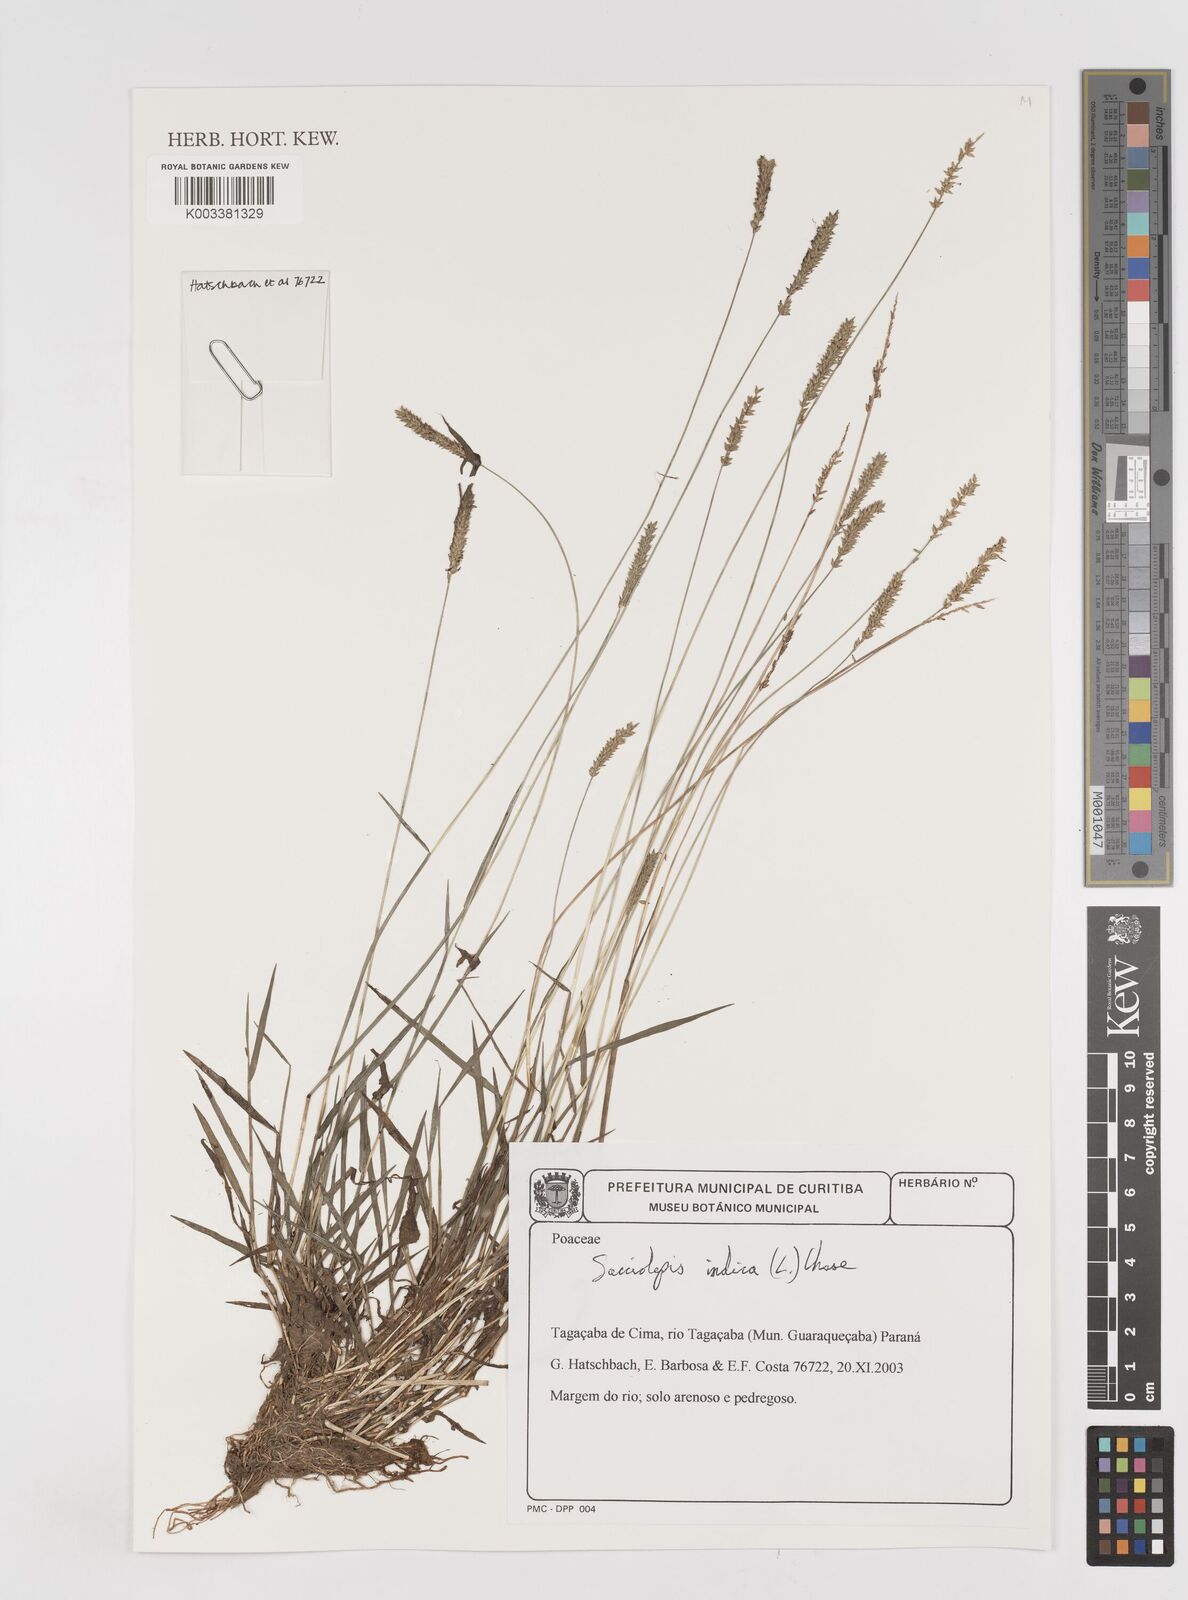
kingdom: Plantae
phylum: Tracheophyta
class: Liliopsida
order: Poales
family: Poaceae
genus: Sacciolepis
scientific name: Sacciolepis indica
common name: Glenwoodgrass
